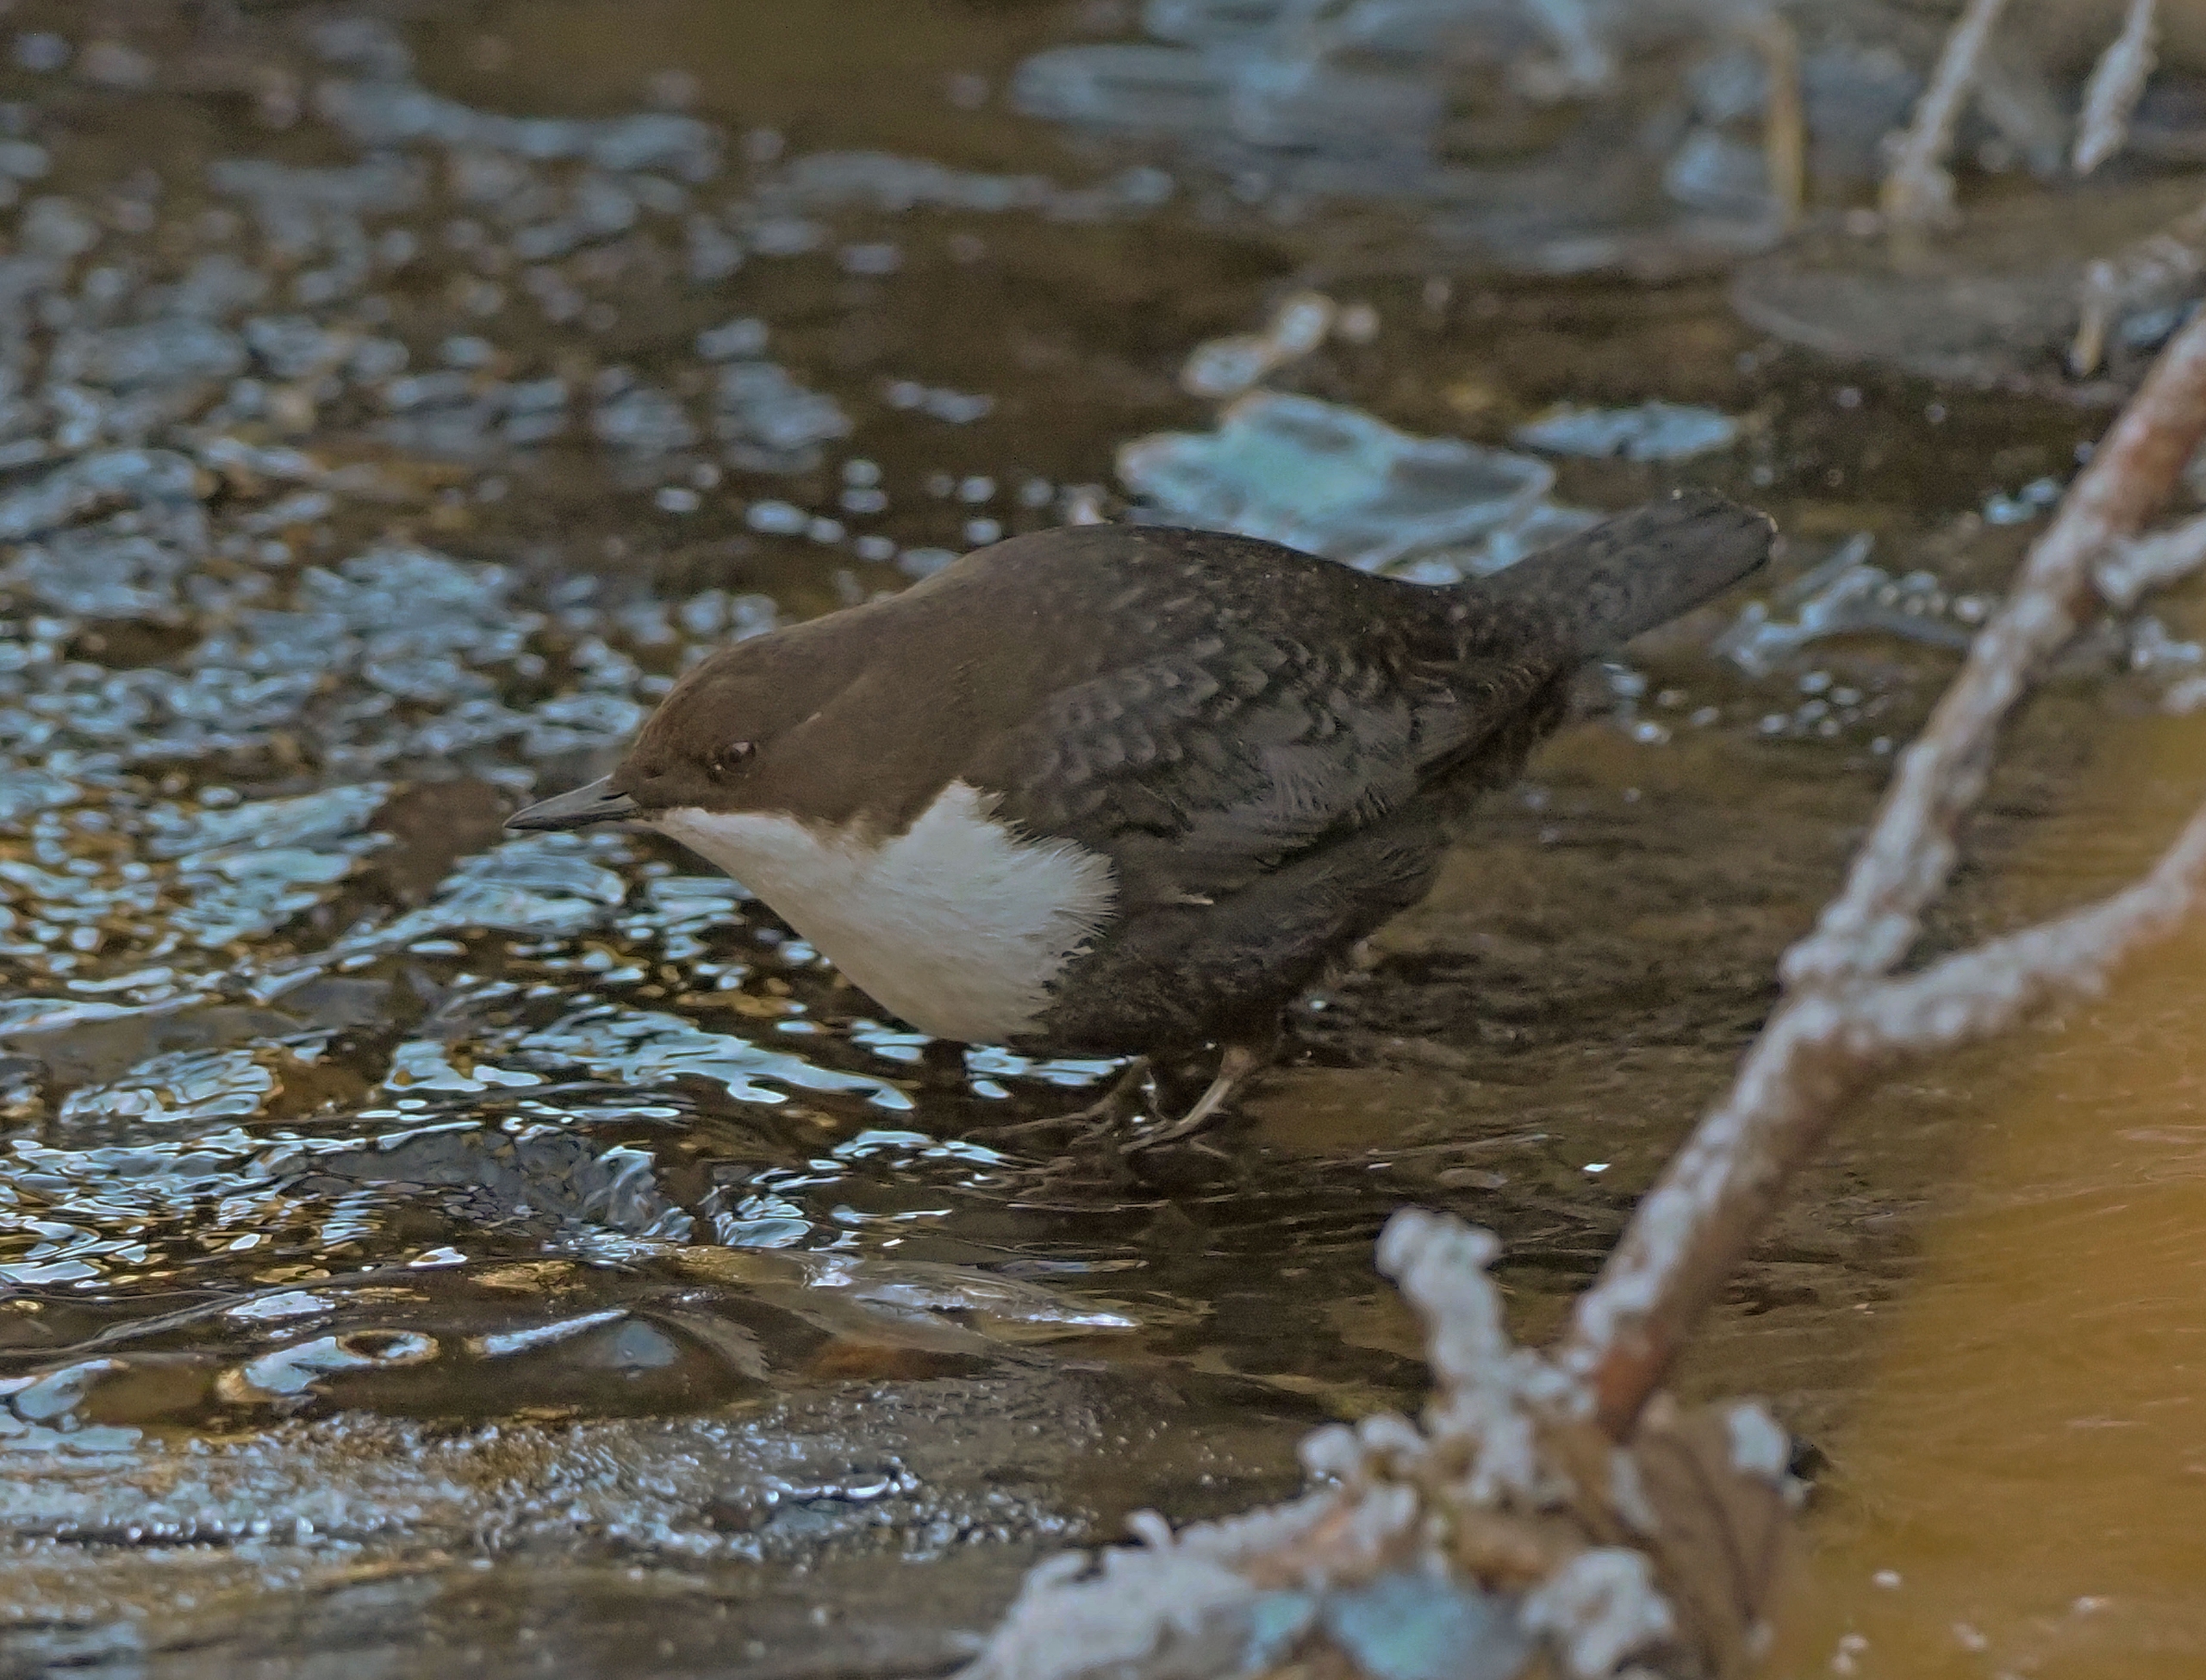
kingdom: Animalia
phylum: Chordata
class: Aves
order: Passeriformes
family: Cinclidae
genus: Cinclus
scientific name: Cinclus cinclus
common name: Vandstær
